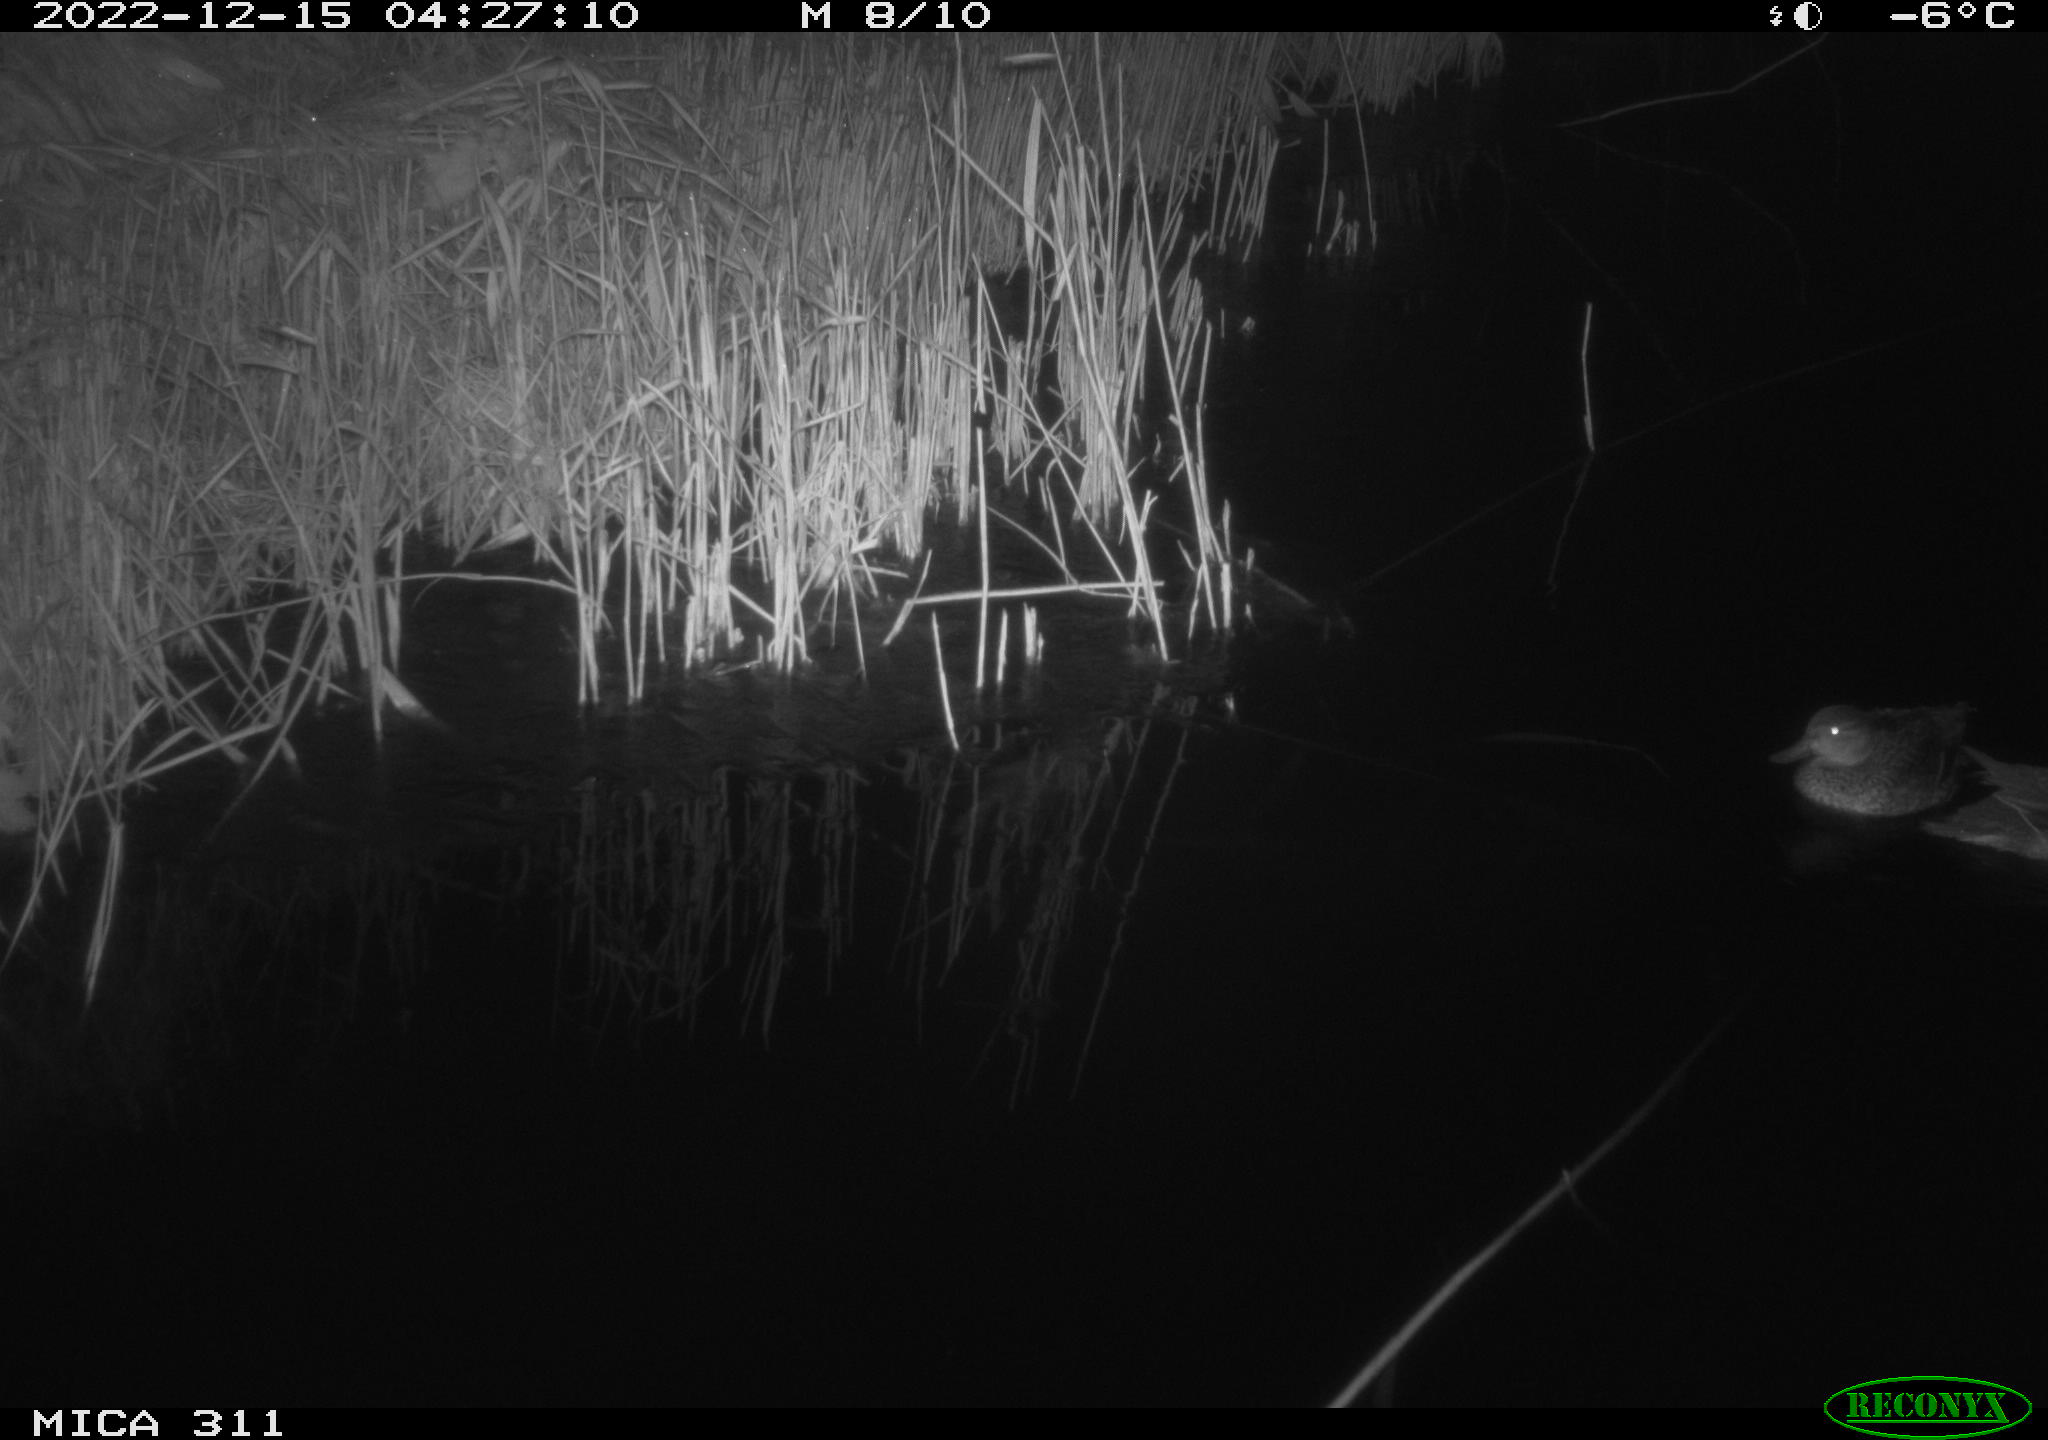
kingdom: Animalia
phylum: Chordata
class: Aves
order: Anseriformes
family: Anatidae
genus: Anas
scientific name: Anas
